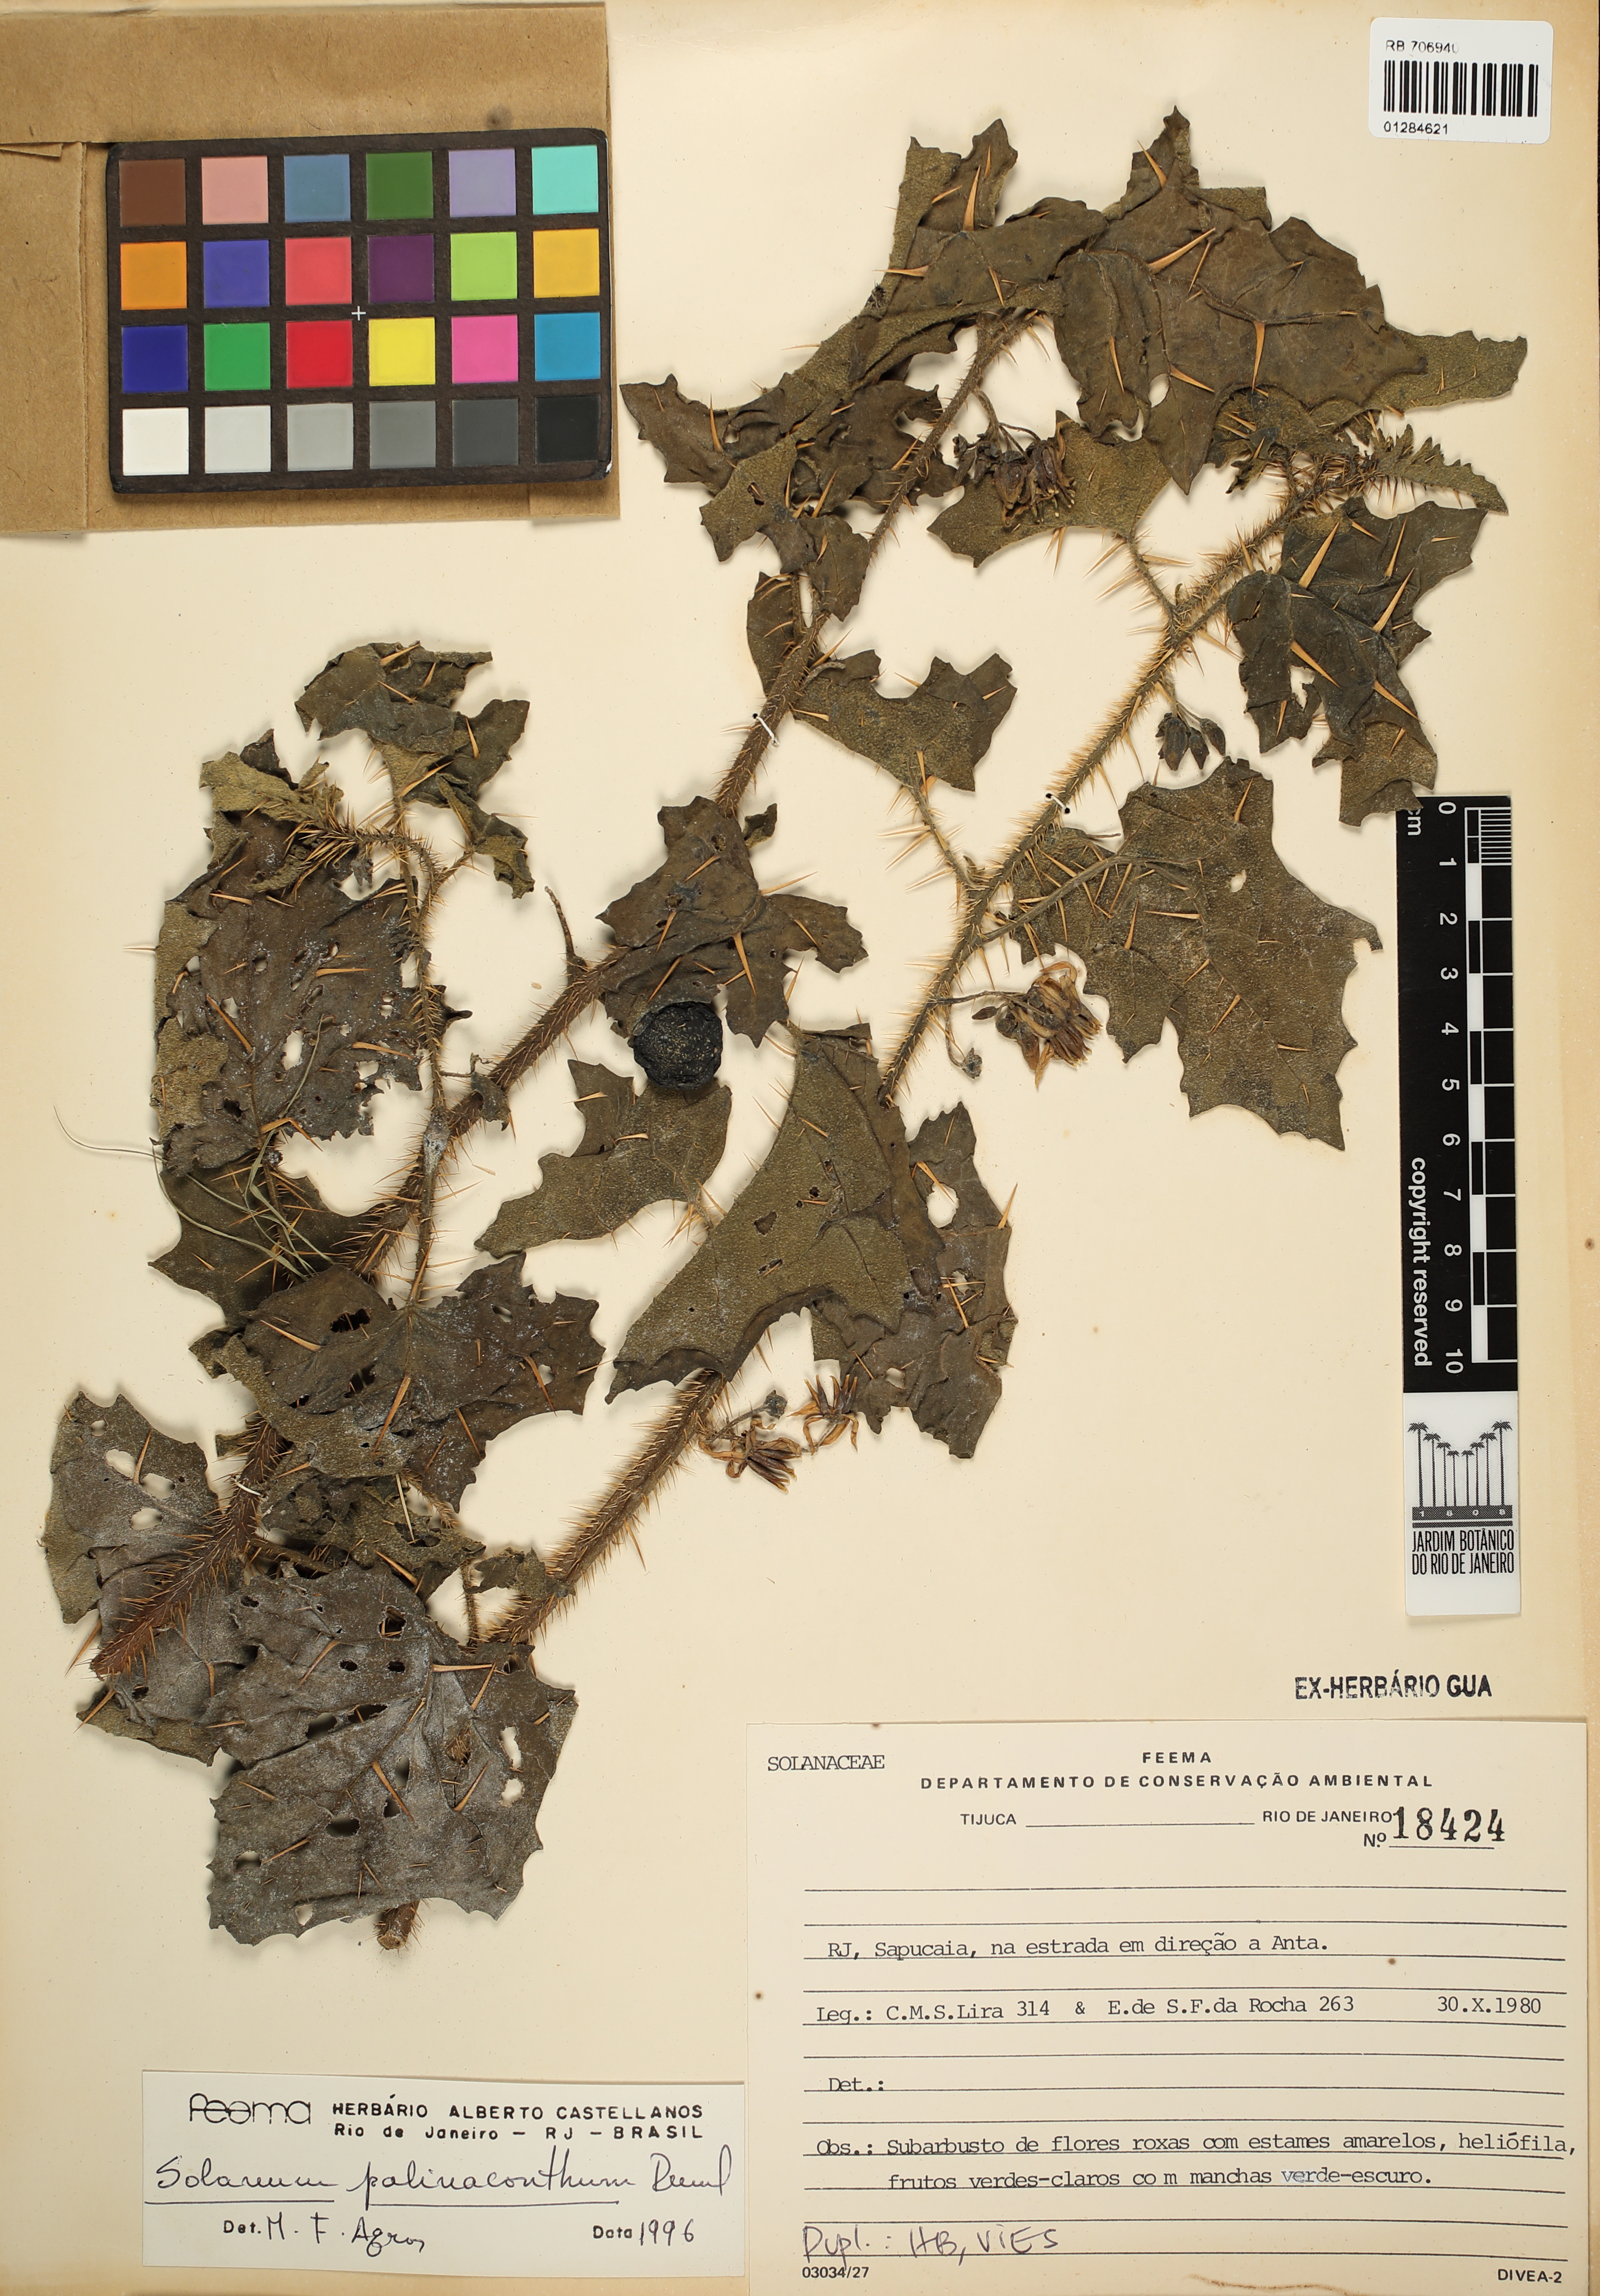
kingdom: Plantae
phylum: Tracheophyta
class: Magnoliopsida
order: Solanales
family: Solanaceae
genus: Solanum
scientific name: Solanum palinacanthum
